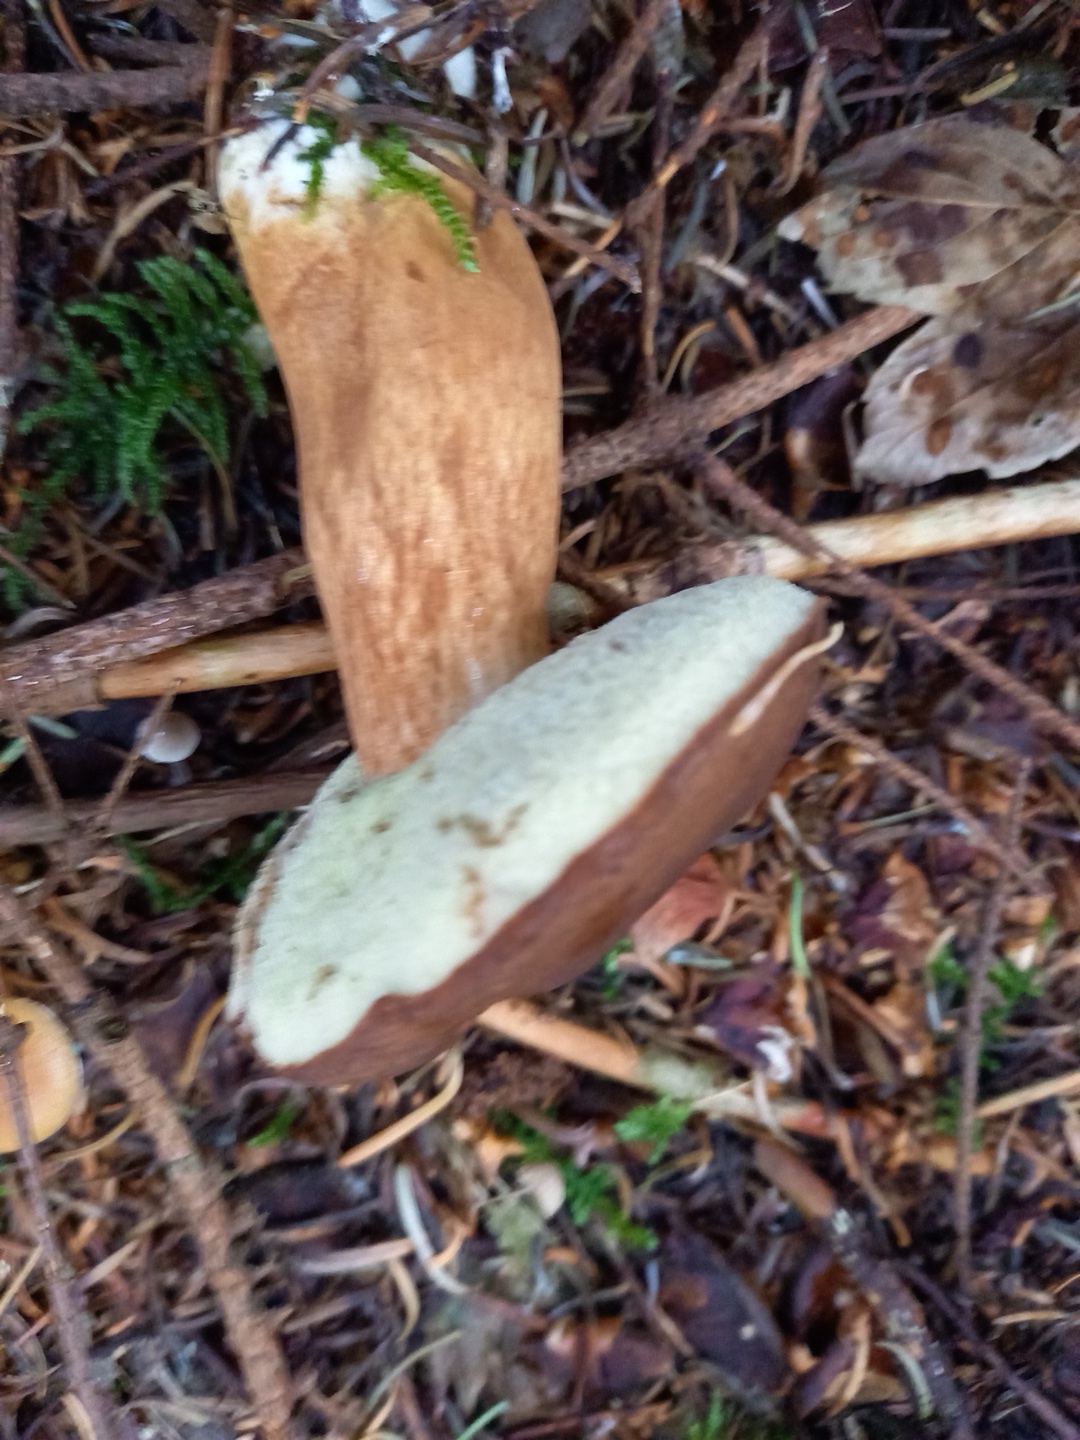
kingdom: Fungi
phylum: Basidiomycota
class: Agaricomycetes
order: Boletales
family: Boletaceae
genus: Imleria
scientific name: Imleria badia
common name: brunstokket rørhat
